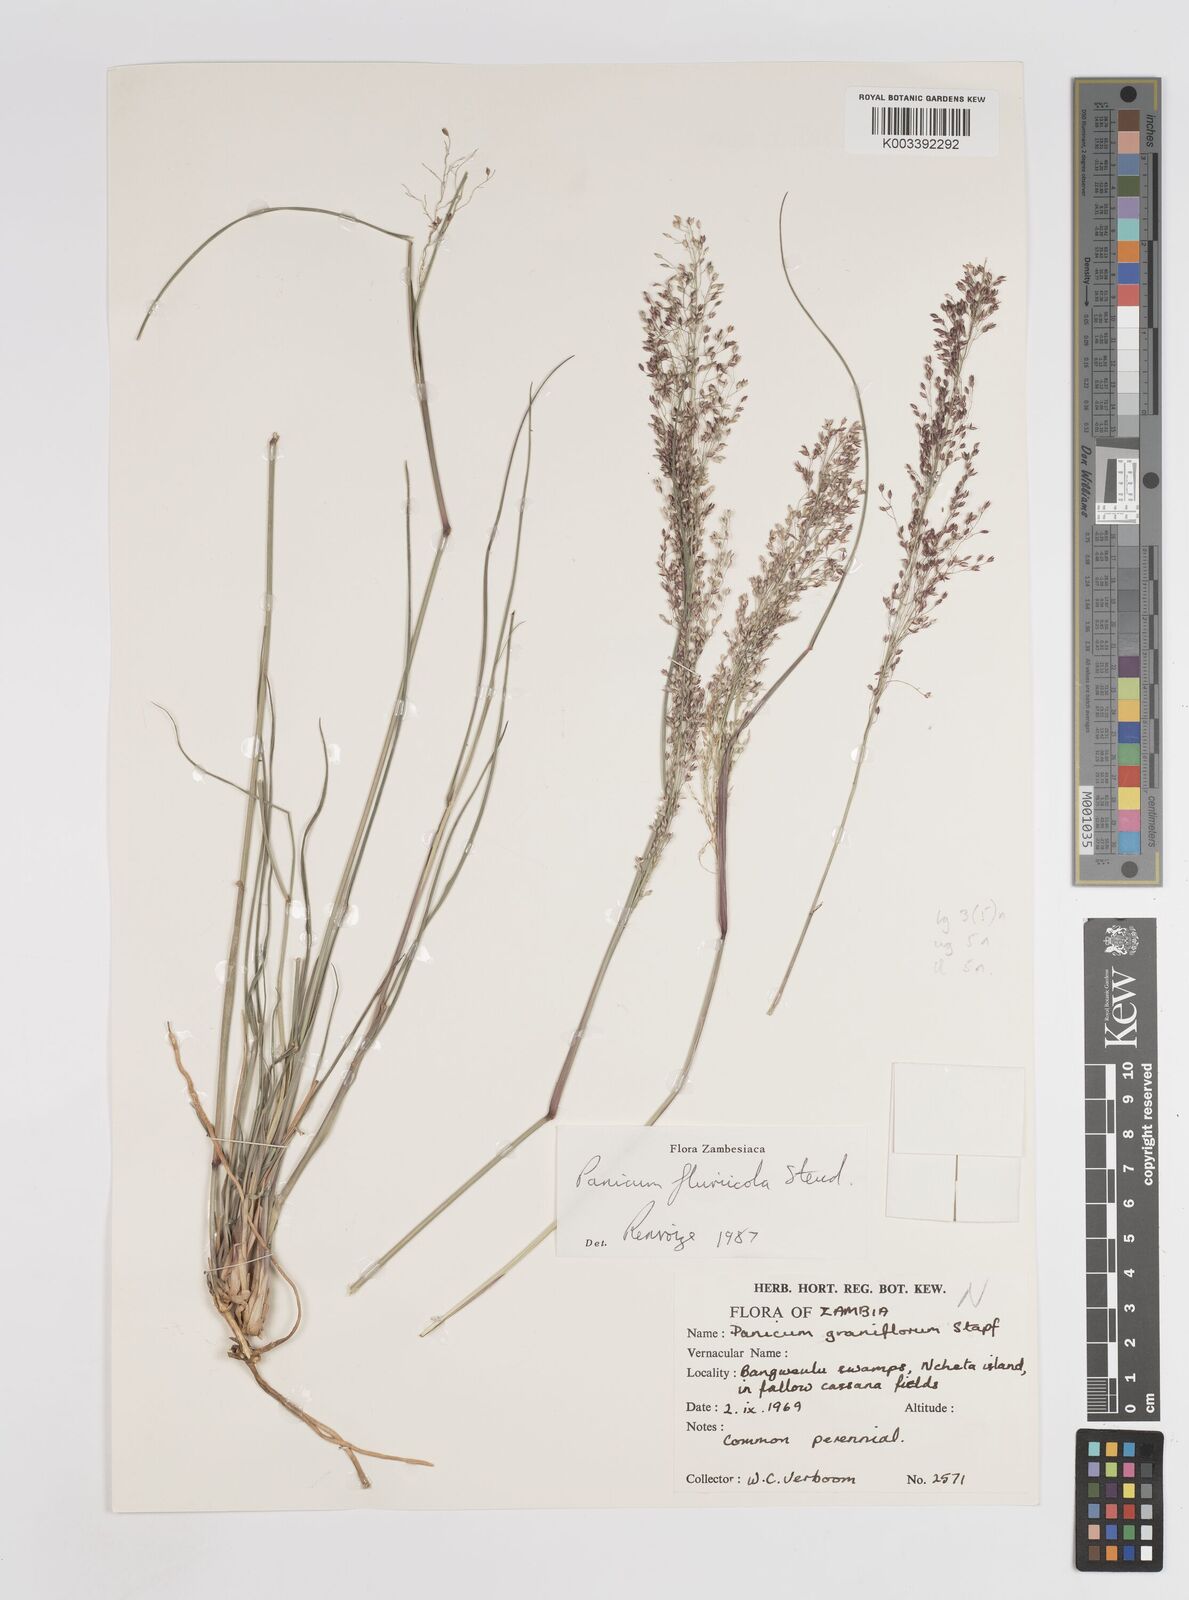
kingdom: Plantae
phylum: Tracheophyta
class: Liliopsida
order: Poales
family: Poaceae
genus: Panicum
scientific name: Panicum fluviicola
